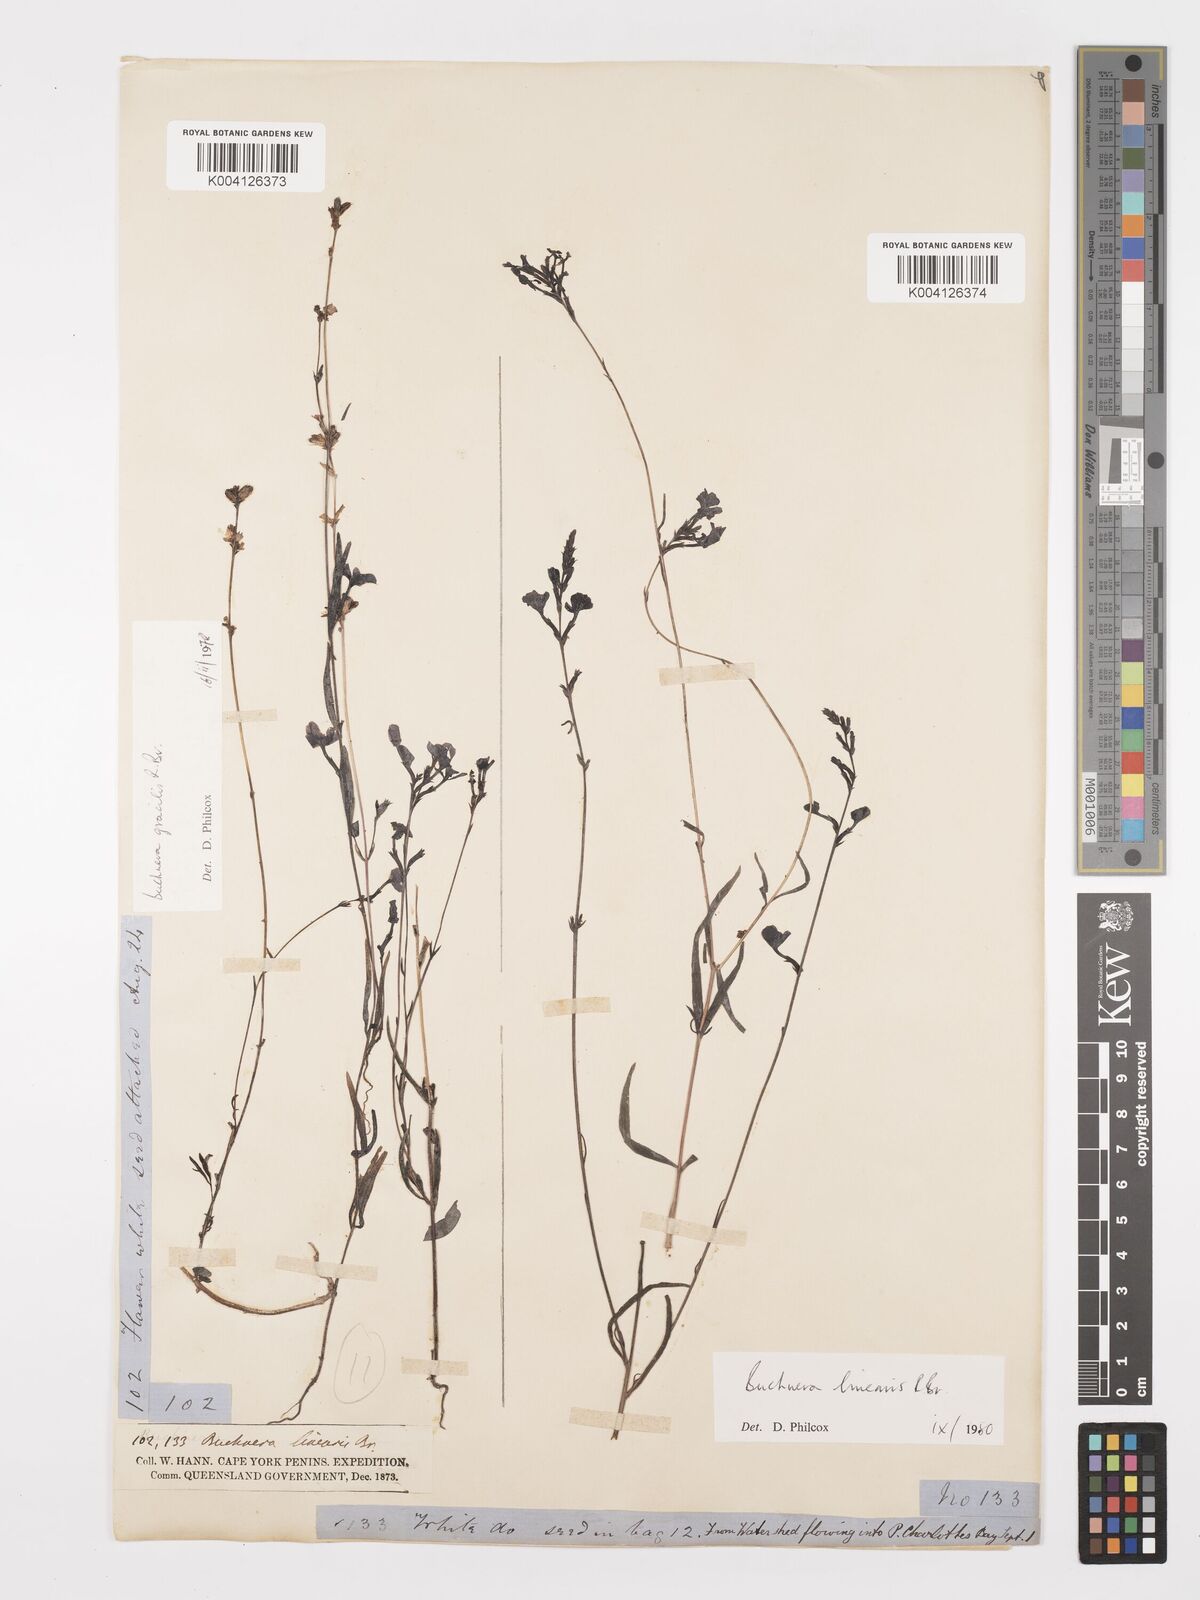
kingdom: Plantae
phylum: Tracheophyta
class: Magnoliopsida
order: Lamiales
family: Orobanchaceae
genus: Buchnera
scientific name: Buchnera gracilis
